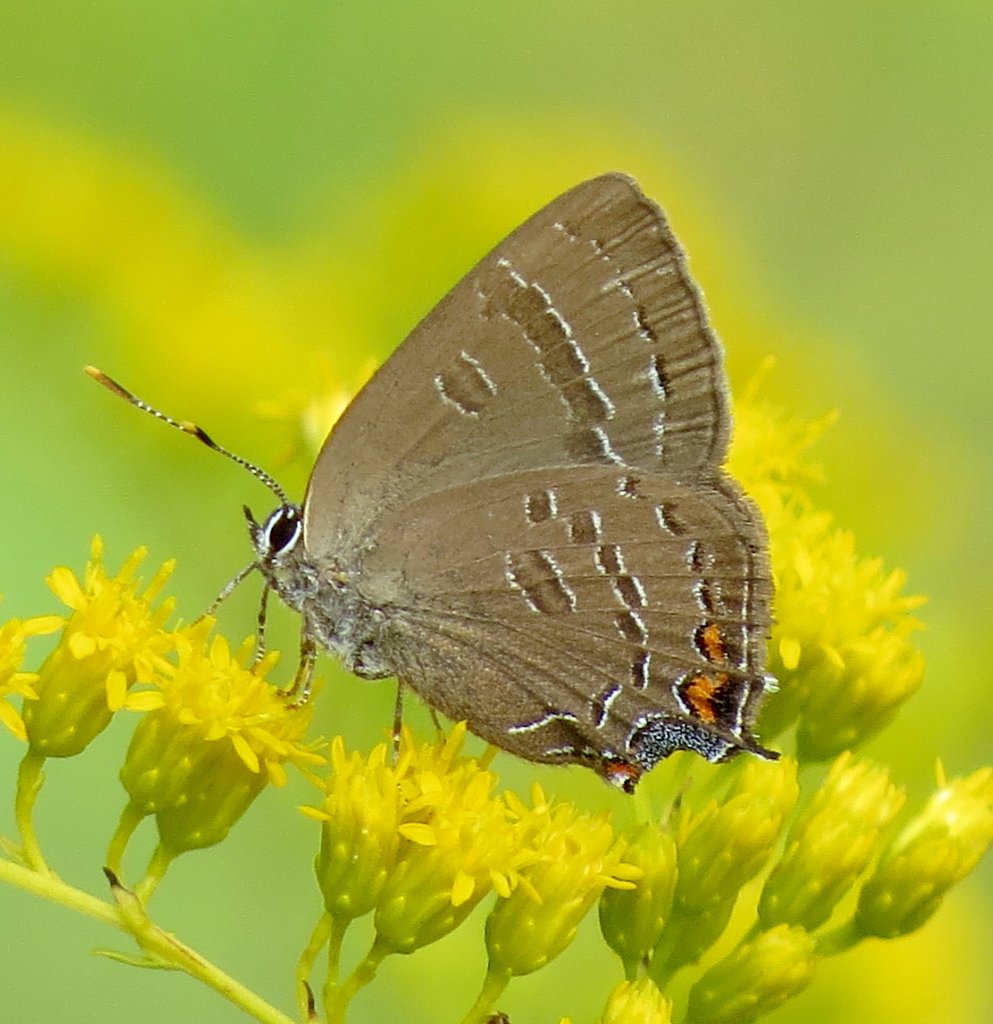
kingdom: Animalia
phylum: Arthropoda
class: Insecta
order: Lepidoptera
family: Lycaenidae
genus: Satyrium
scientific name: Satyrium calanus
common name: Banded Hairstreak
